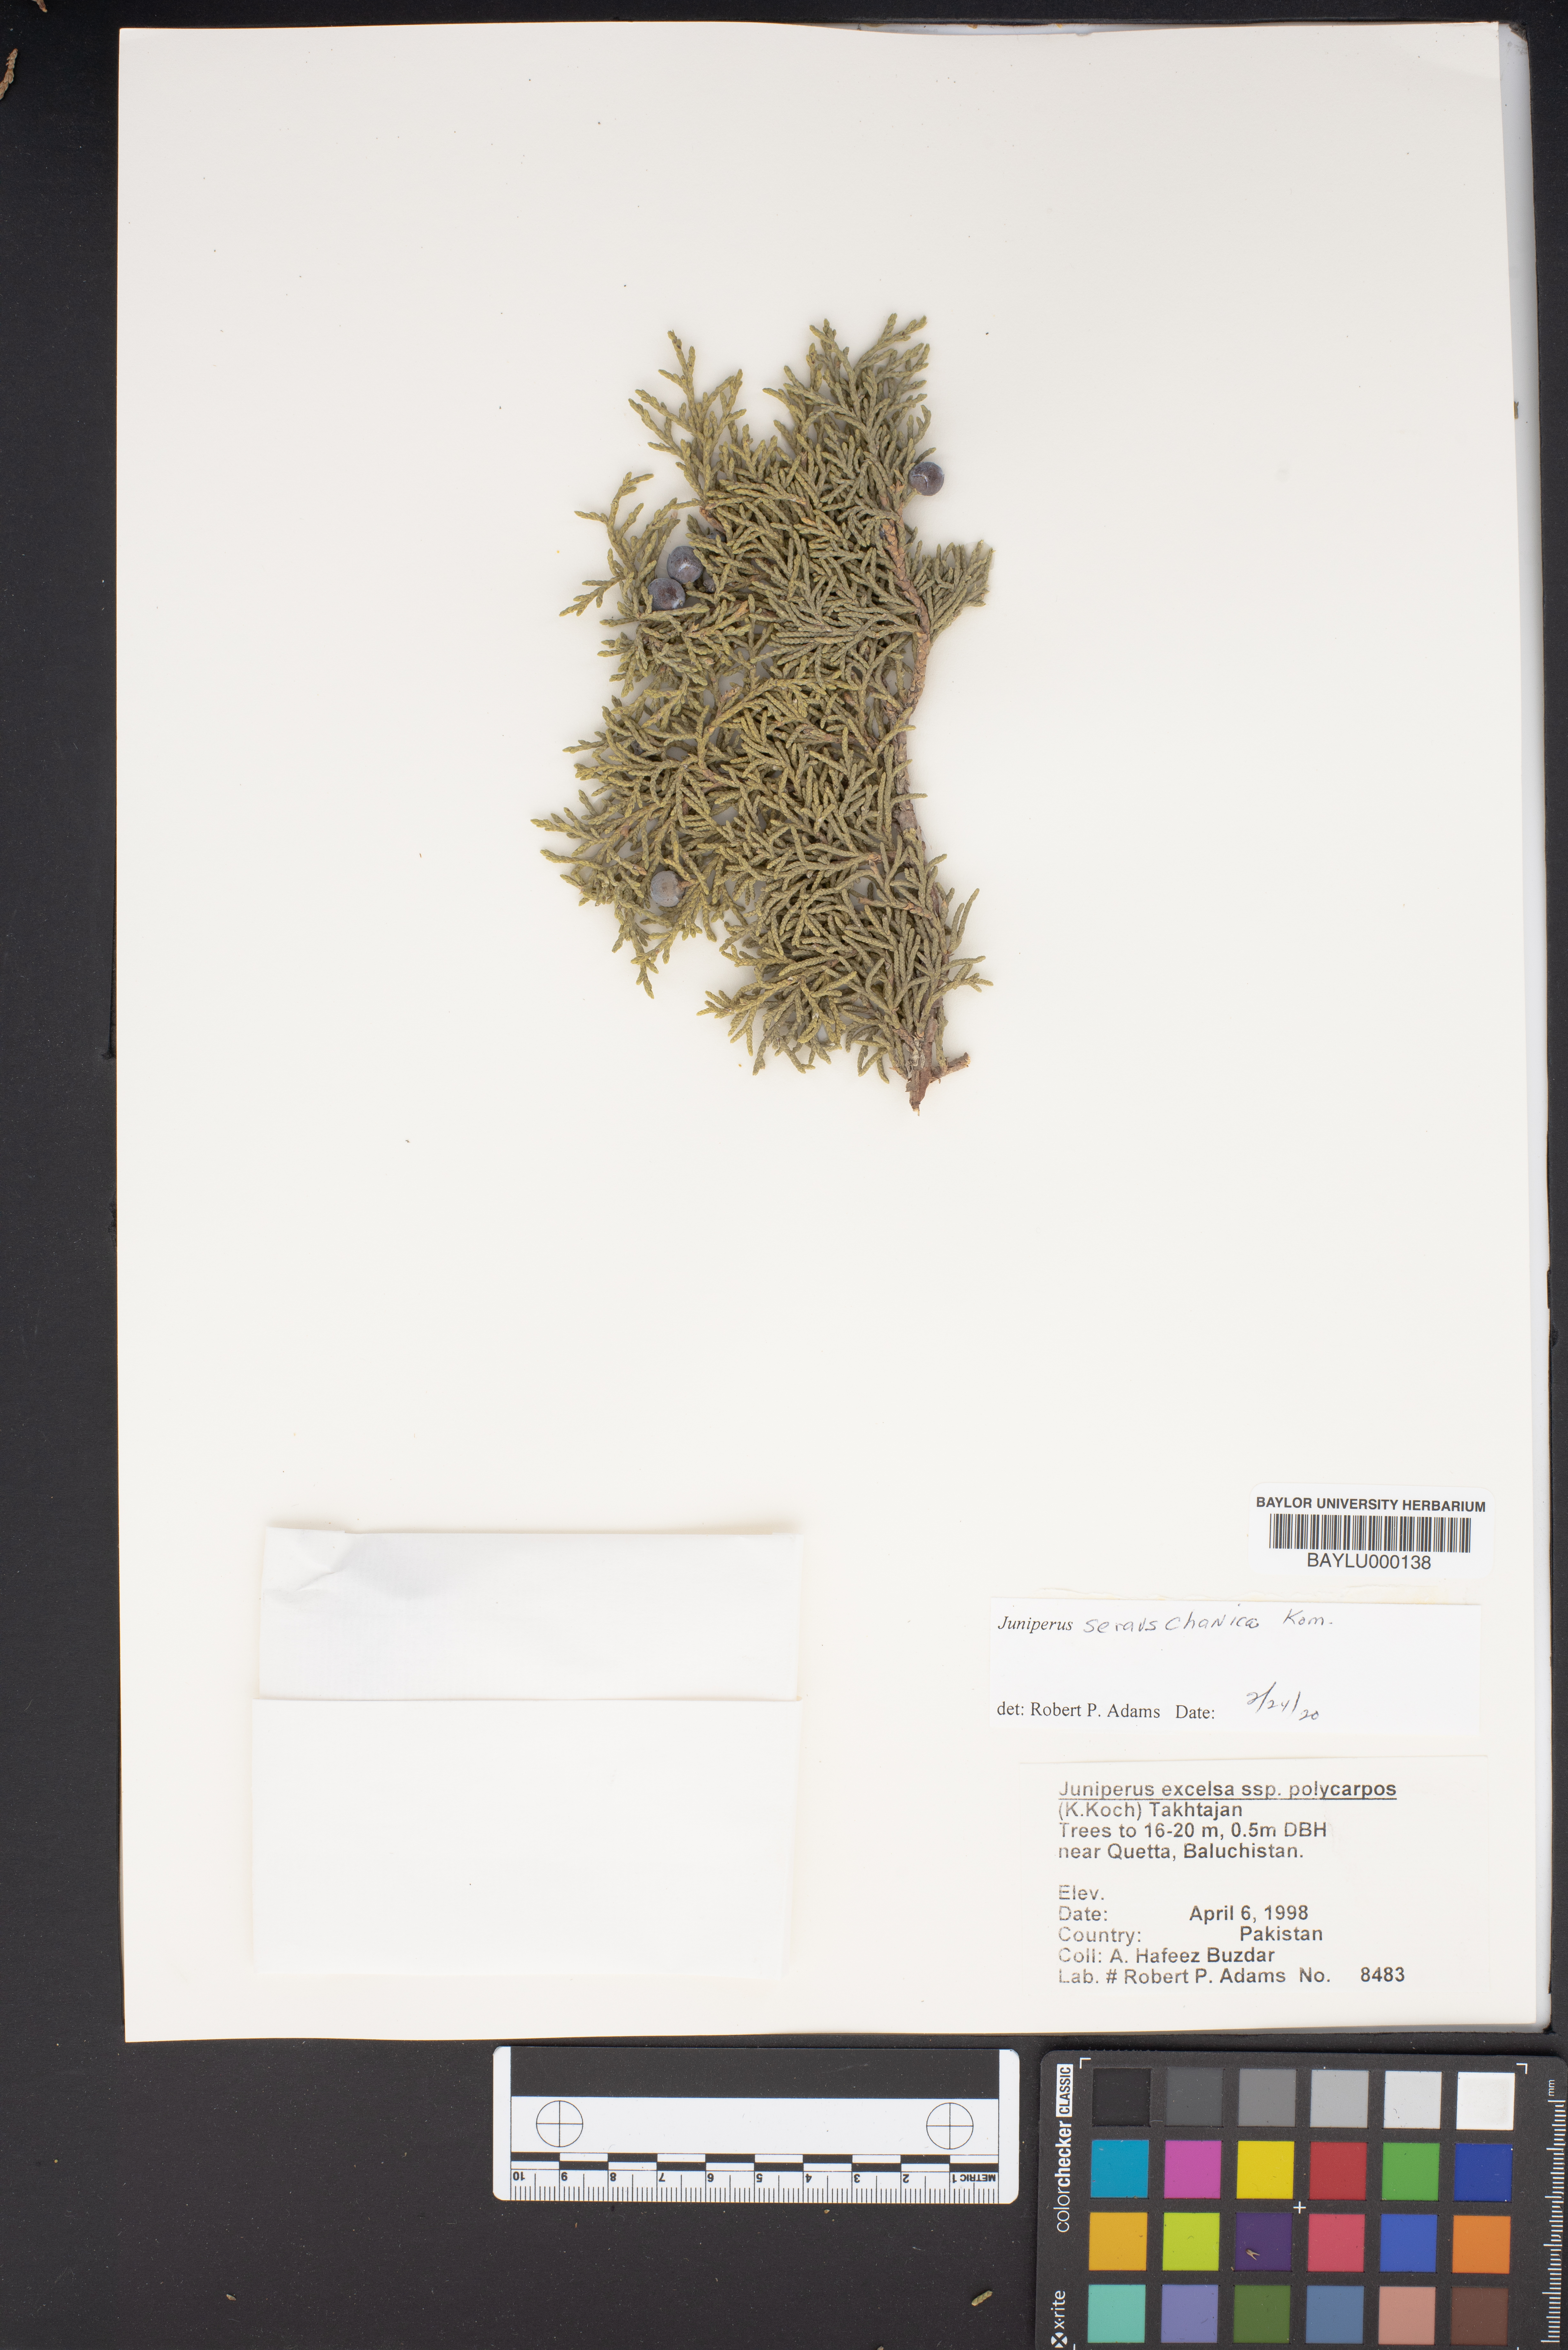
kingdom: Plantae
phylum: Tracheophyta
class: Pinopsida
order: Pinales
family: Cupressaceae
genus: Juniperus
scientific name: Juniperus excelsa
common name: Crimean juniper
